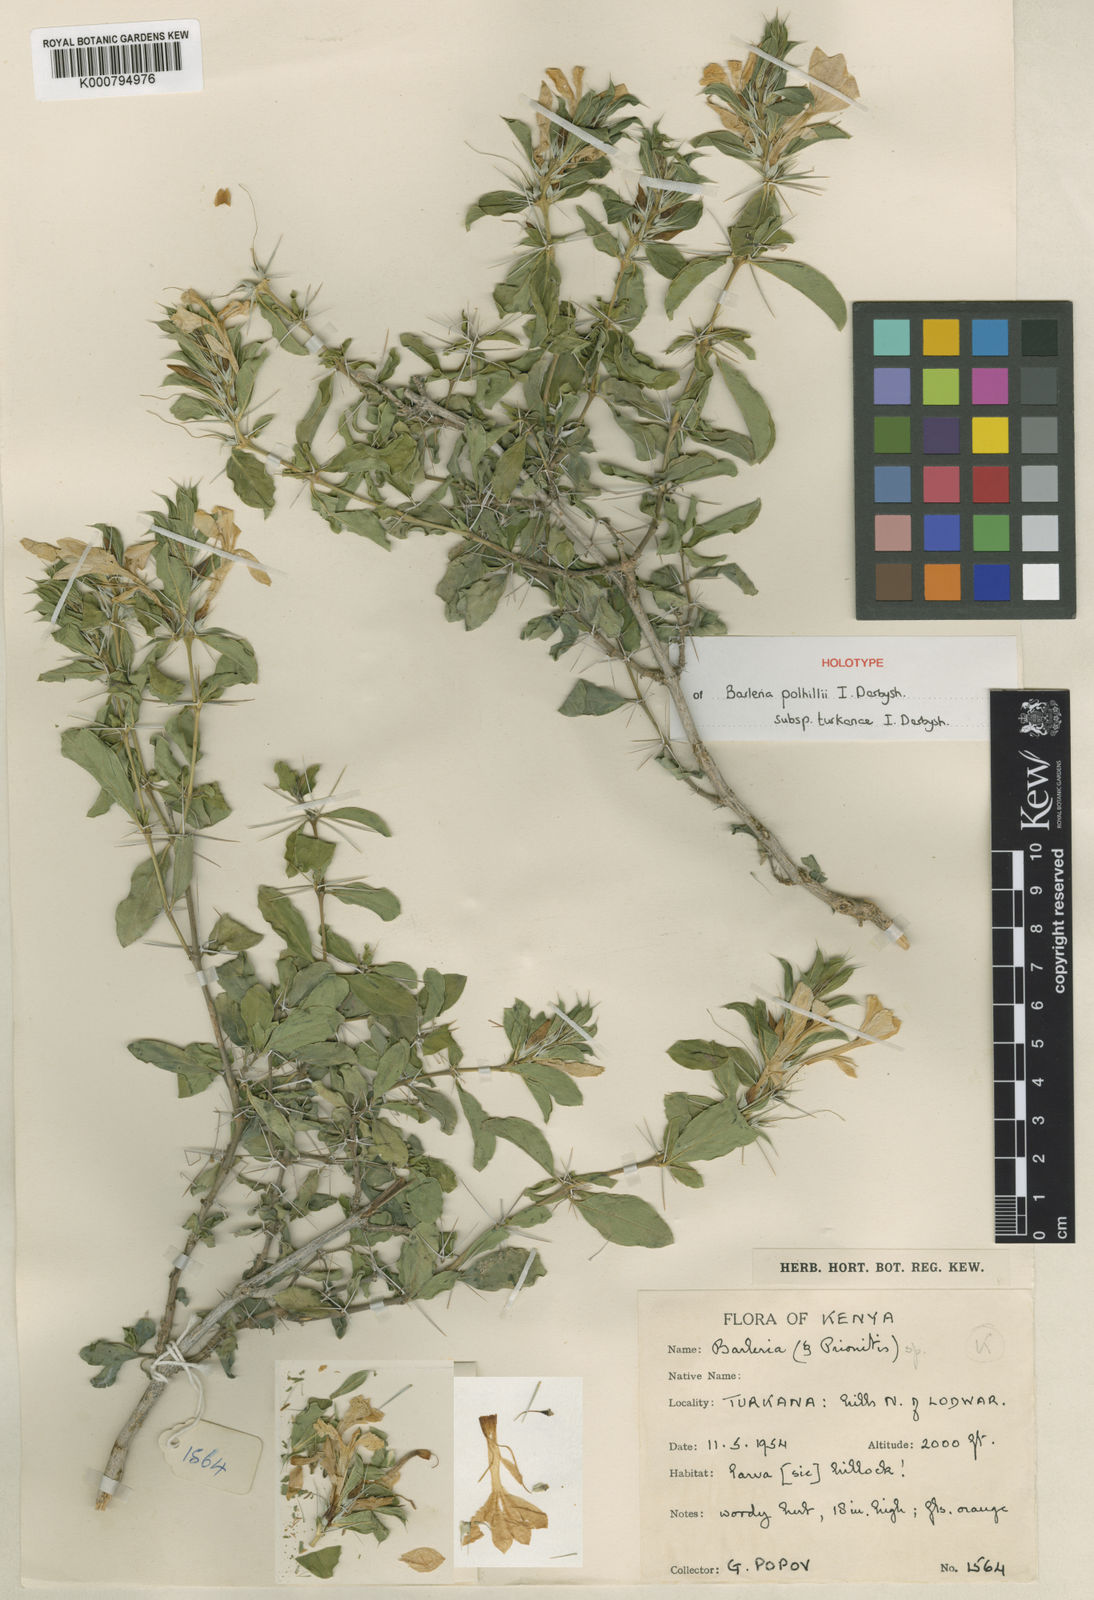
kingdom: Plantae
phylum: Tracheophyta
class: Magnoliopsida
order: Lamiales
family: Acanthaceae
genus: Barleria
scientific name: Barleria polhillii
